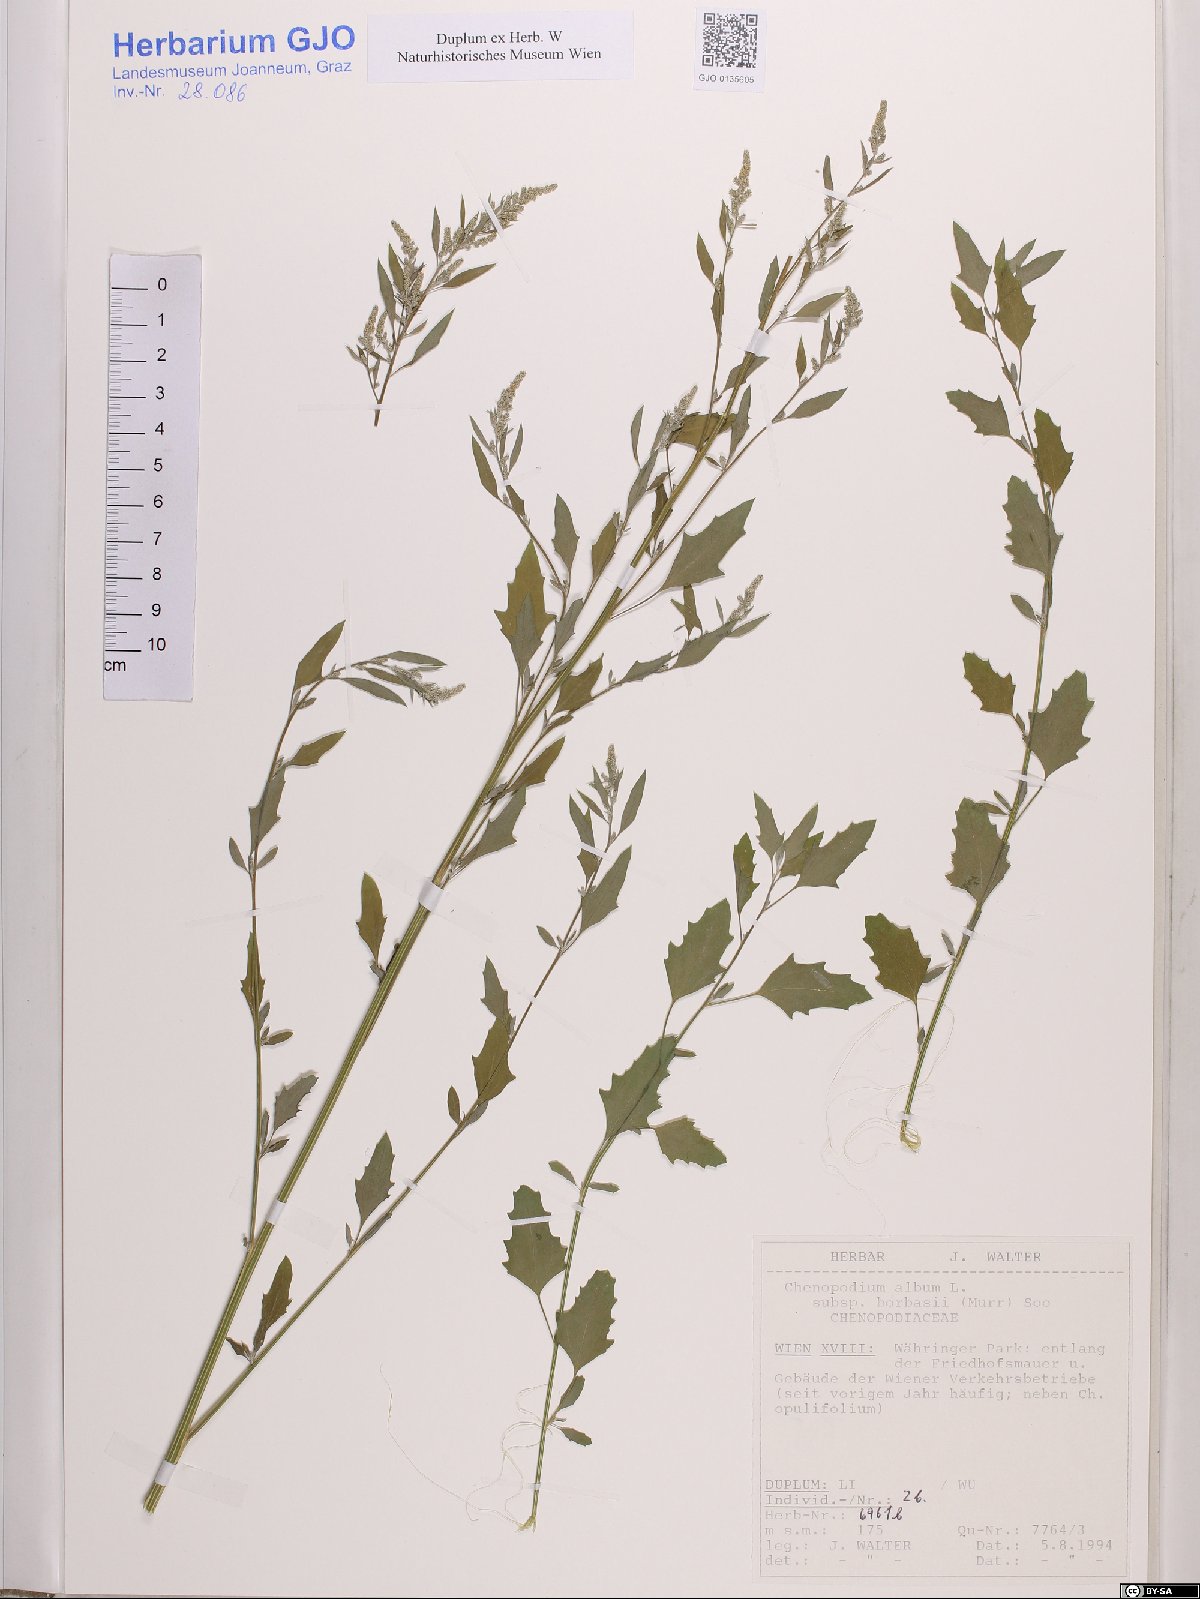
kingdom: Plantae
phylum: Tracheophyta
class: Magnoliopsida
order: Caryophyllales
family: Amaranthaceae
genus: Chenopodium
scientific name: Chenopodium borbasii
